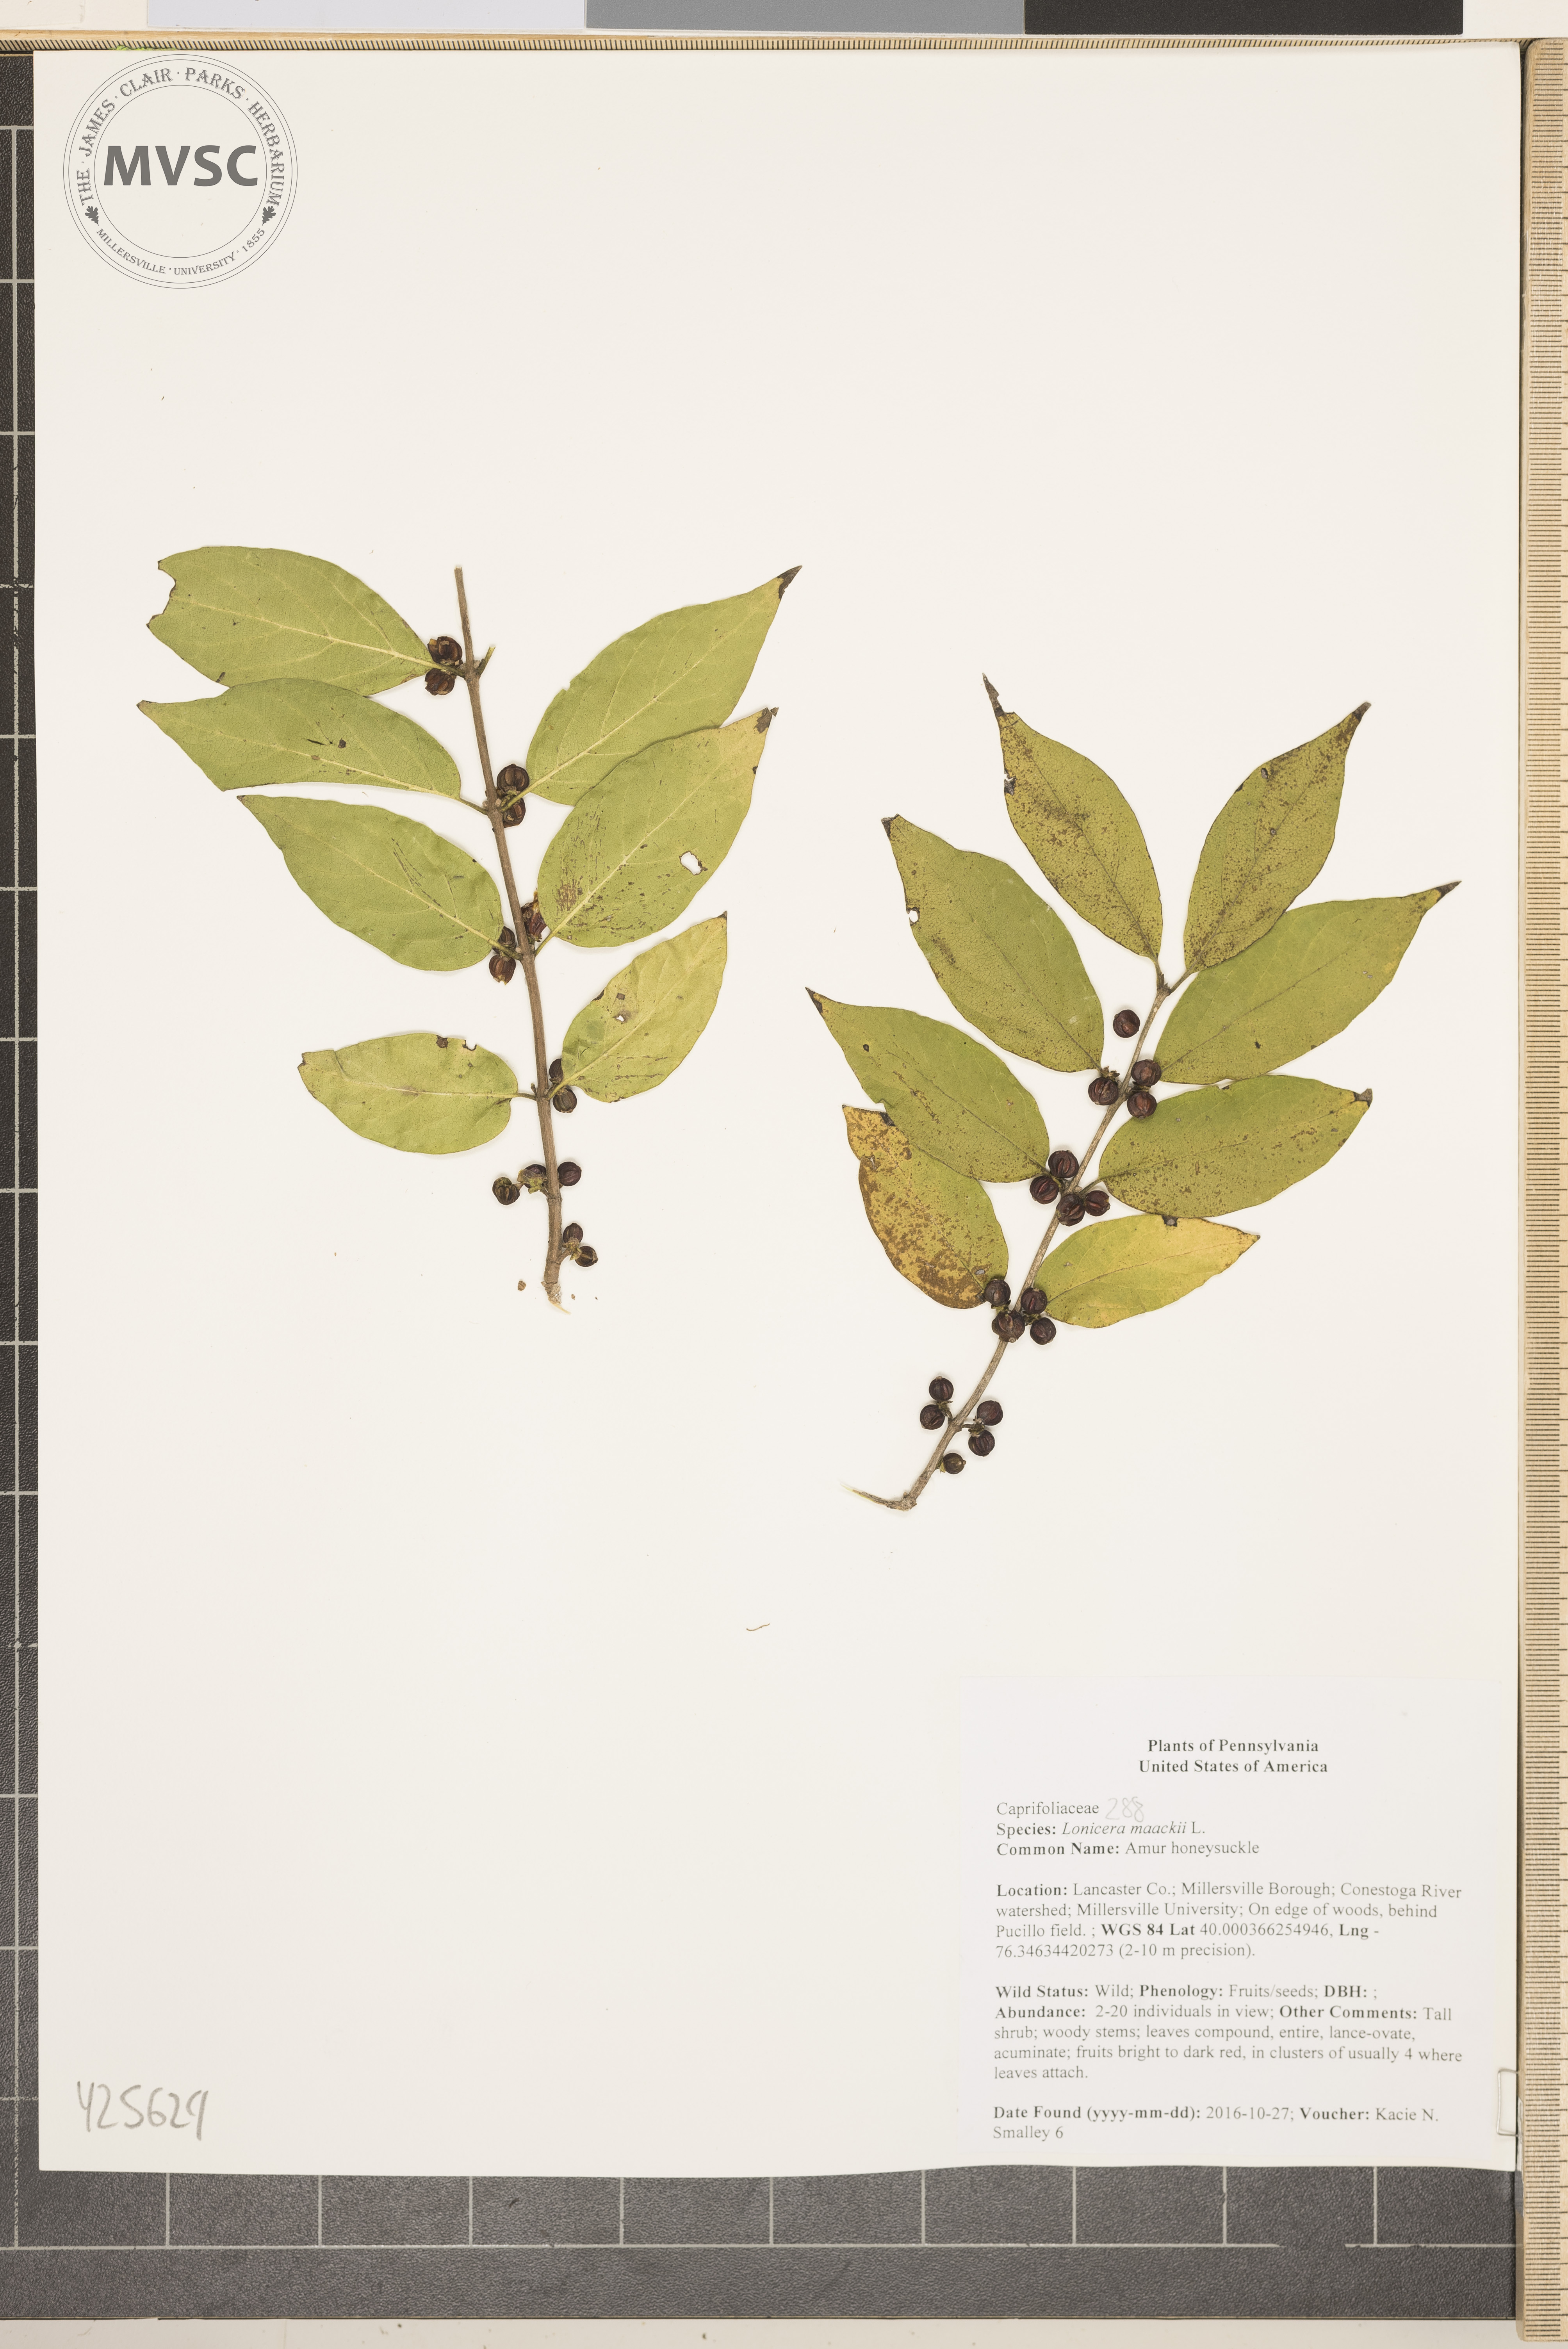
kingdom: Plantae
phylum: Tracheophyta
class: Magnoliopsida
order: Dipsacales
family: Caprifoliaceae
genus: Lonicera
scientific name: Lonicera maackii
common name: Amur honeysuckle
